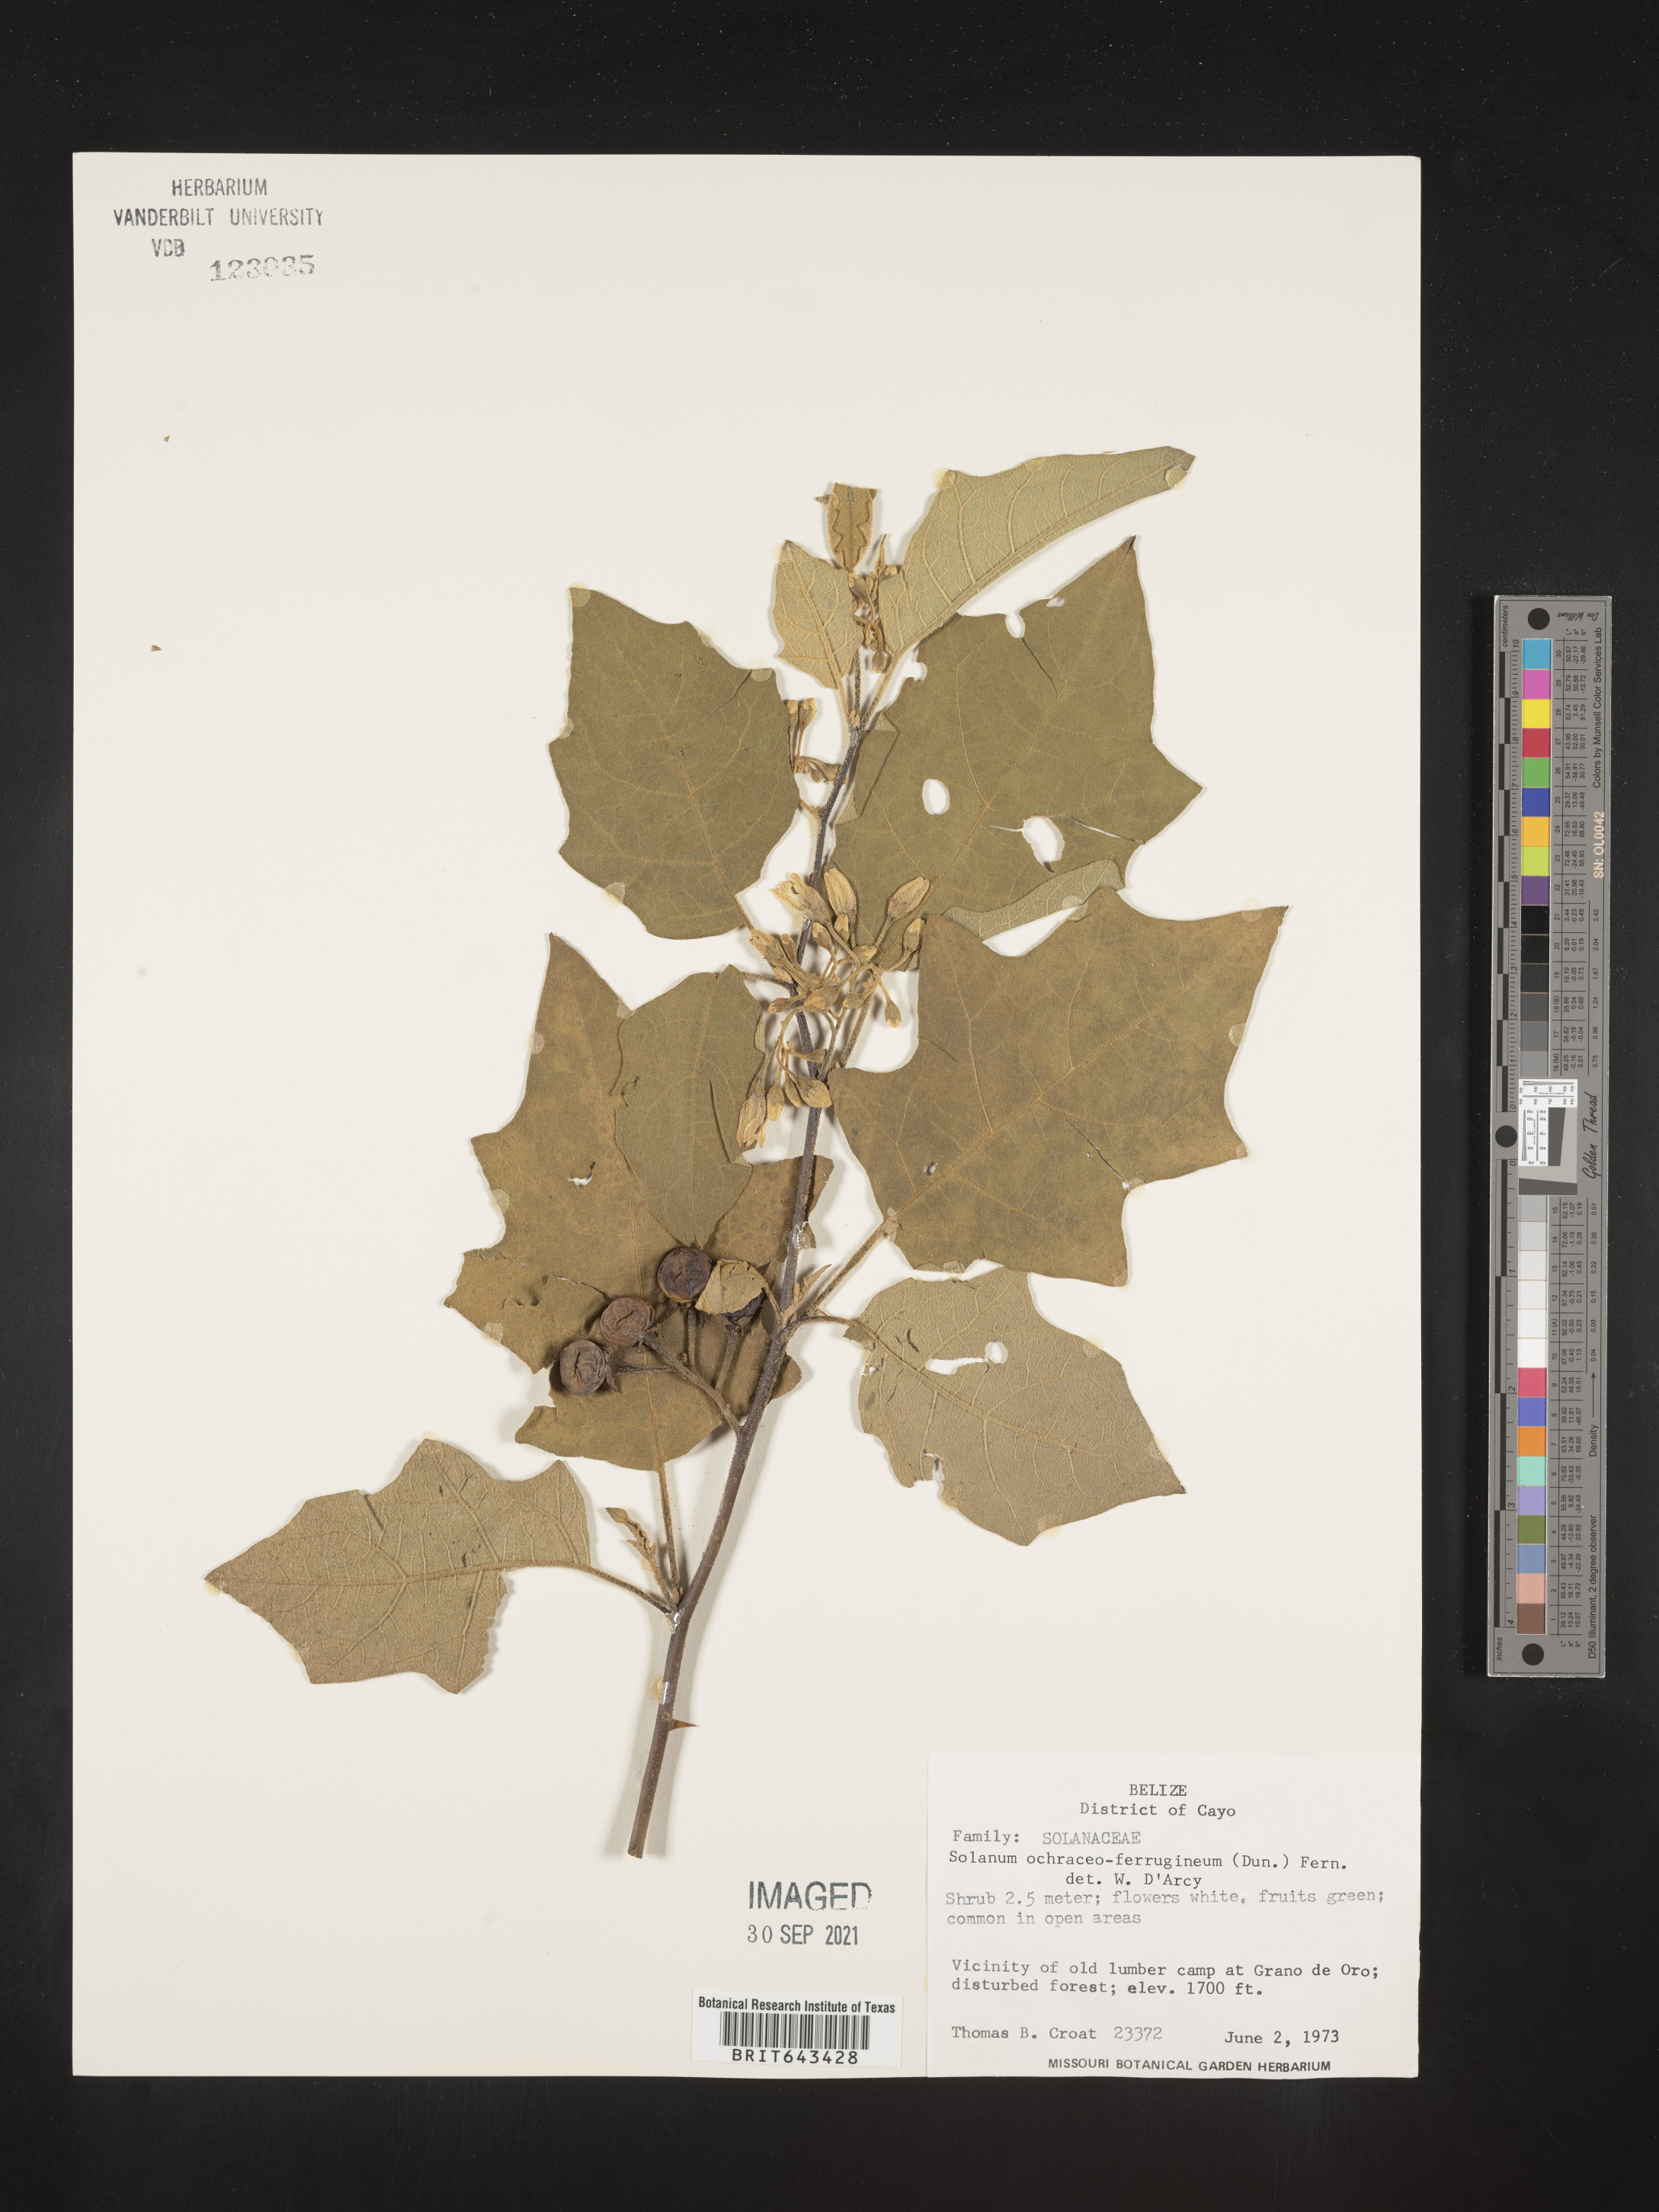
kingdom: Plantae
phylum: Tracheophyta
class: Magnoliopsida
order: Solanales
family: Solanaceae
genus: Solanum
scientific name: Solanum
